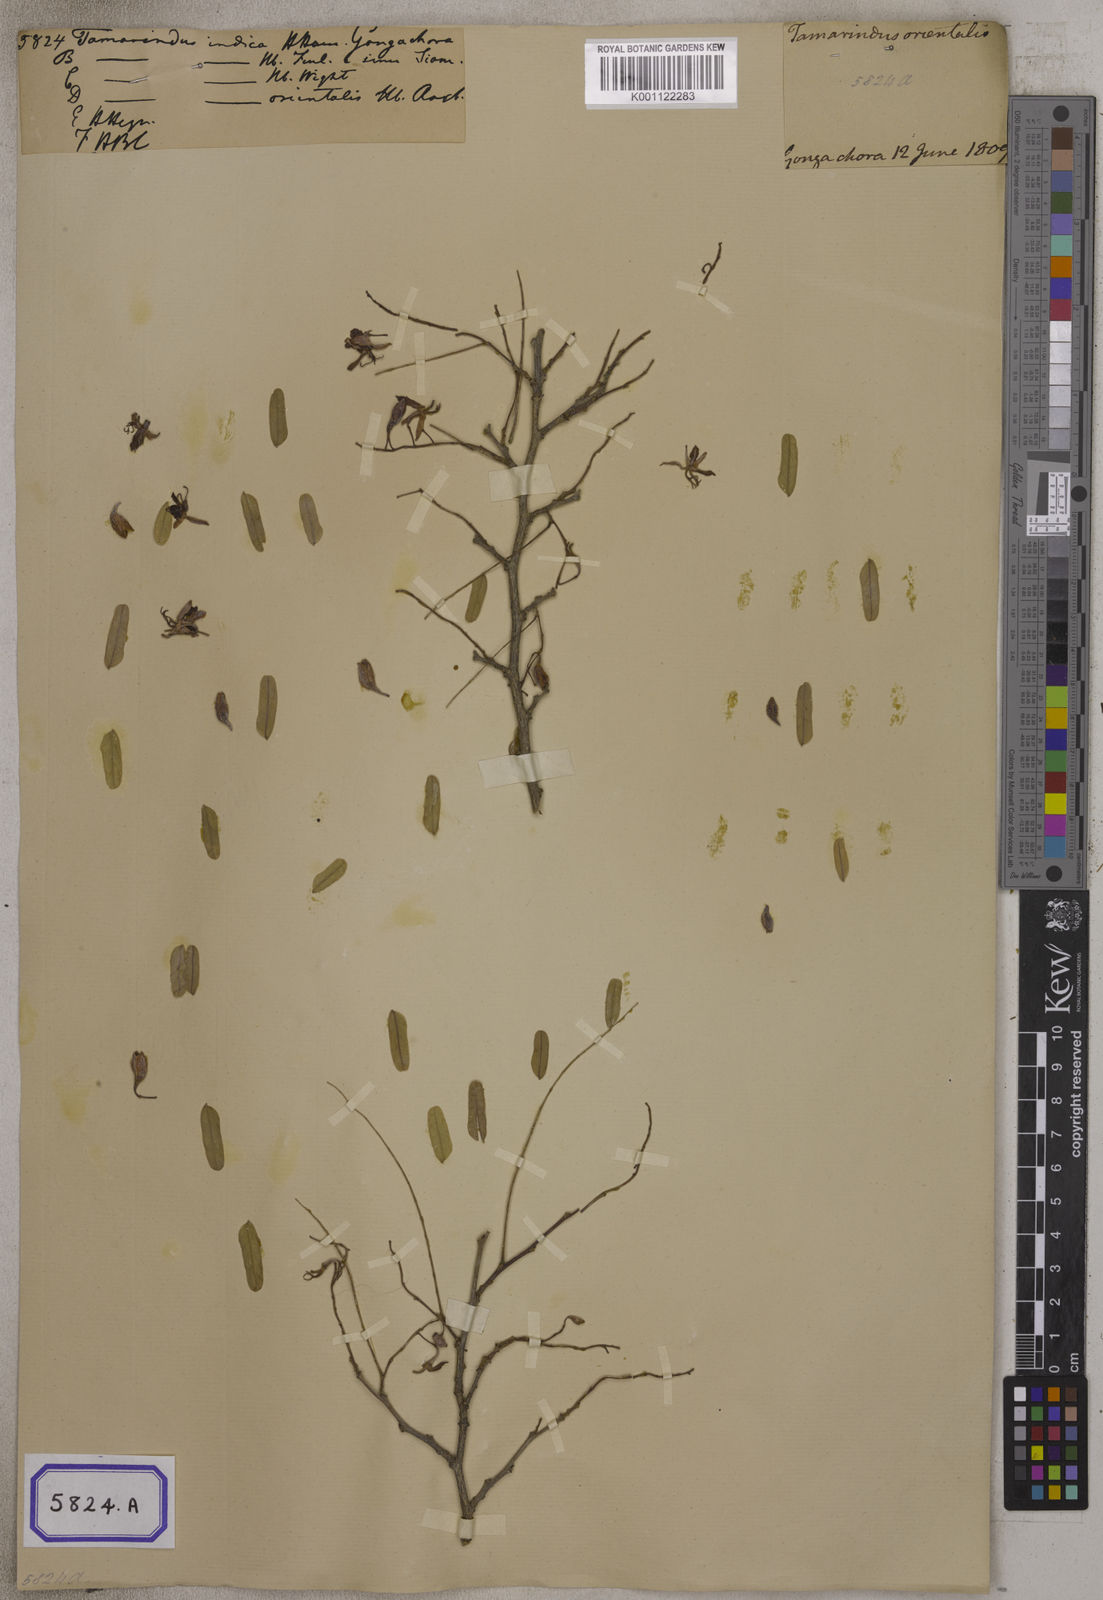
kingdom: Plantae
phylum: Tracheophyta
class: Magnoliopsida
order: Fabales
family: Fabaceae
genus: Tamarindus
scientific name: Tamarindus indica
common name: Tamarind
